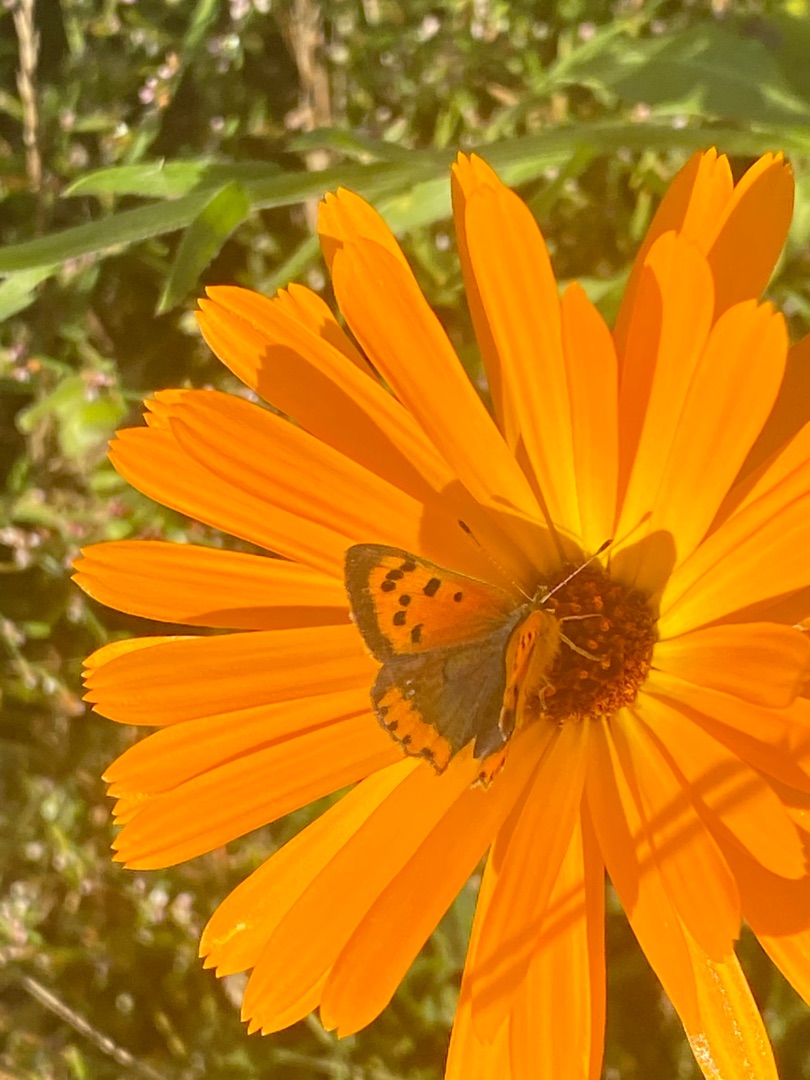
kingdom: Animalia
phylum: Arthropoda
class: Insecta
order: Lepidoptera
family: Lycaenidae
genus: Lycaena
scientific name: Lycaena phlaeas
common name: Lille ildfugl
